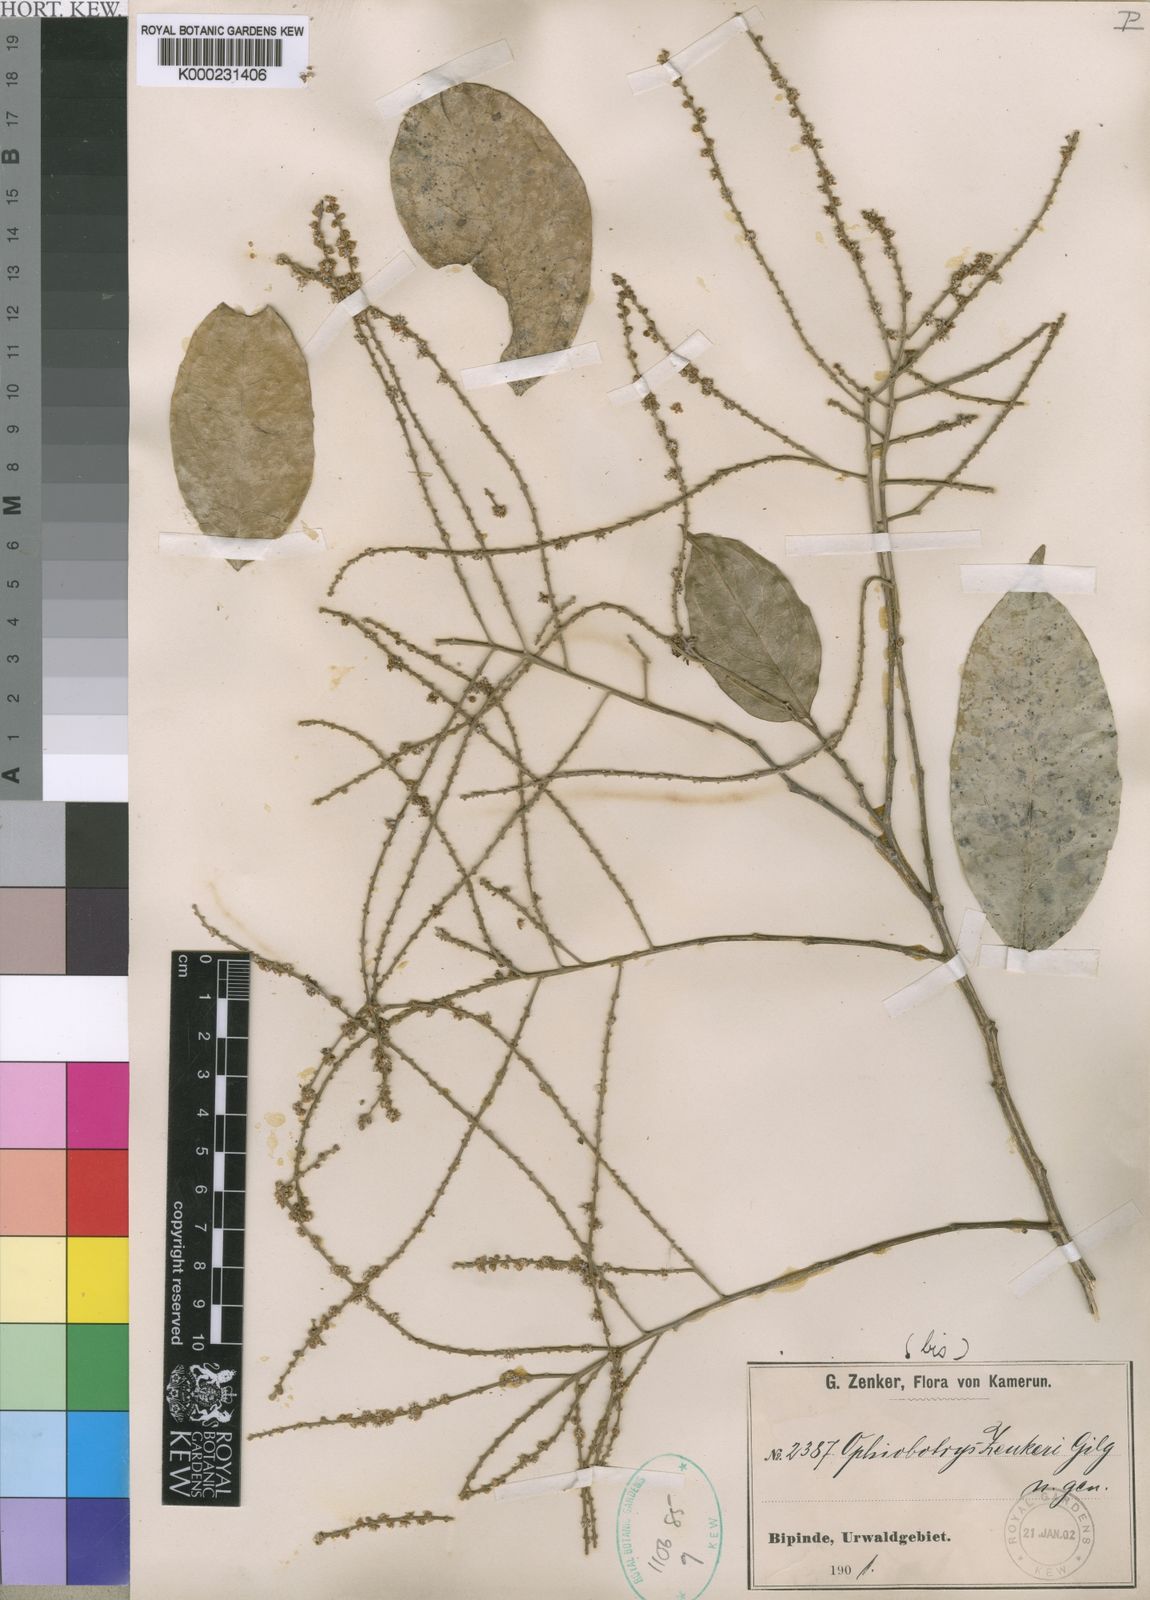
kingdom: Plantae
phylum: Tracheophyta
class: Magnoliopsida
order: Malpighiales
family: Salicaceae
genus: Ophiobotrys
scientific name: Ophiobotrys zenkeri
